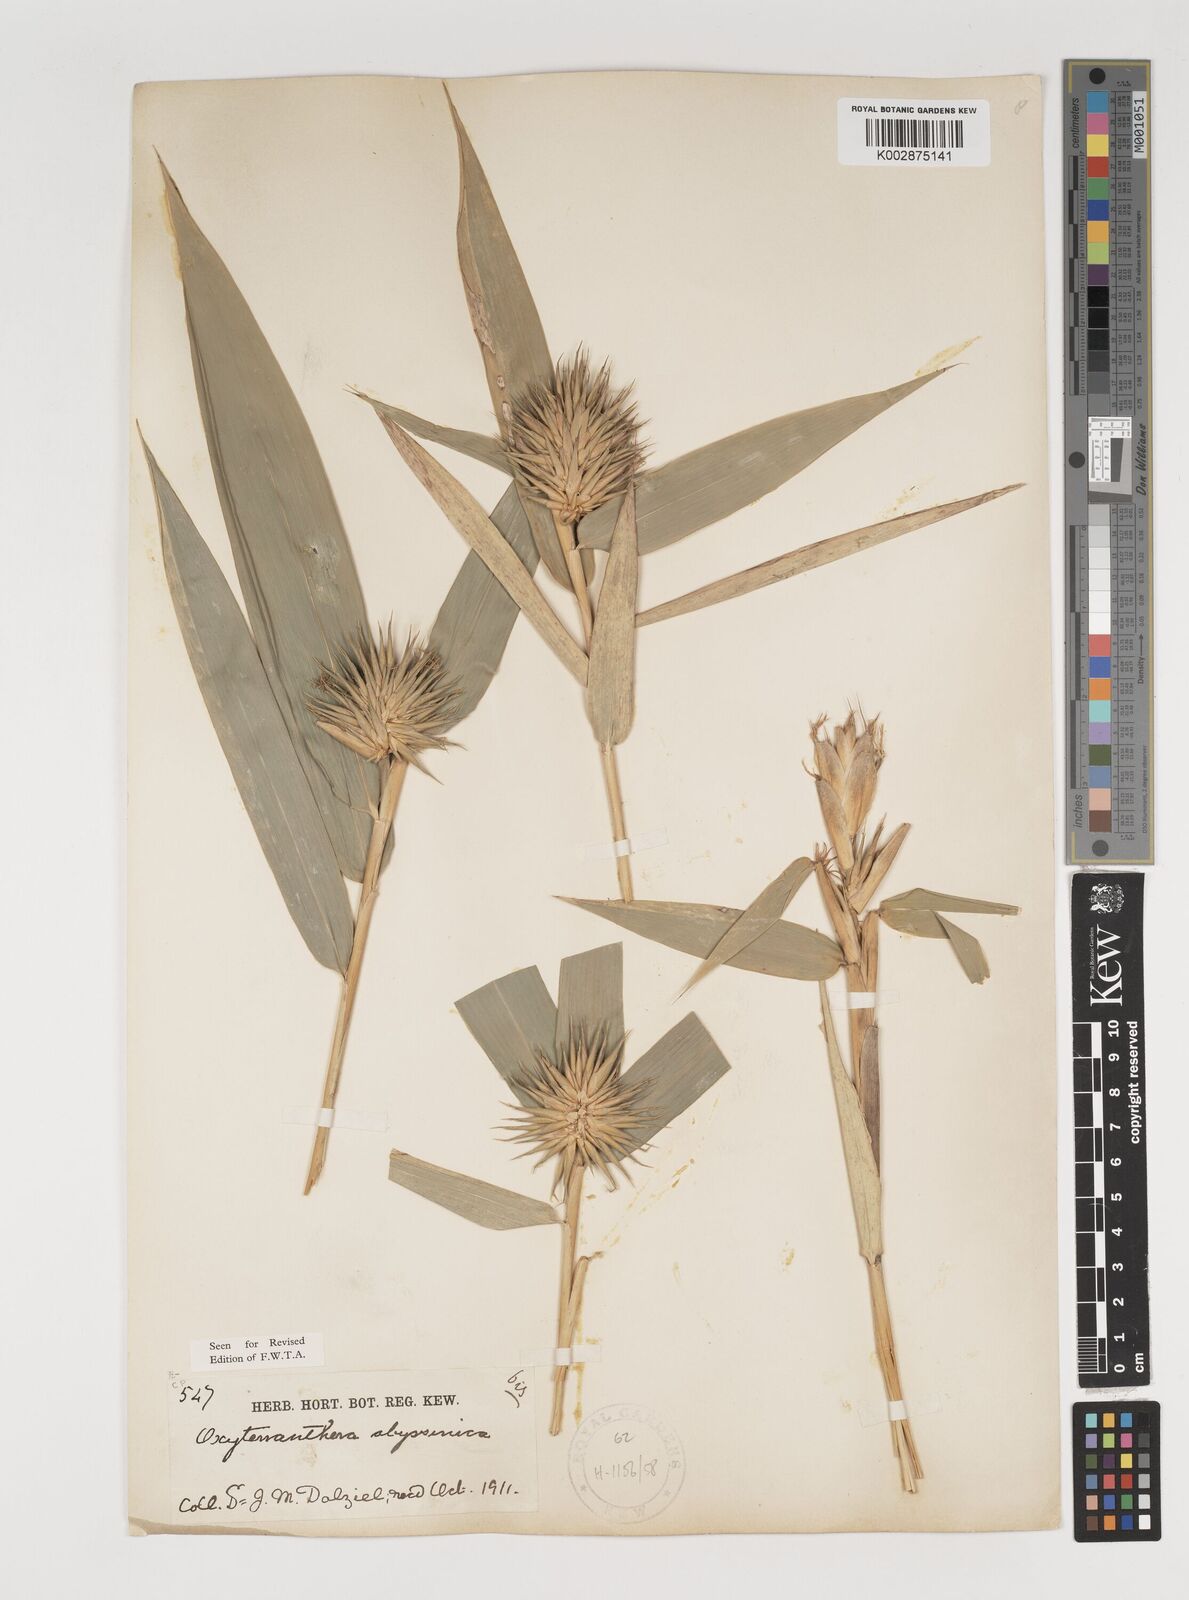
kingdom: Plantae
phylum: Tracheophyta
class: Liliopsida
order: Poales
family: Poaceae
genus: Oxytenanthera
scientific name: Oxytenanthera abyssinica
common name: Wine bamboo
